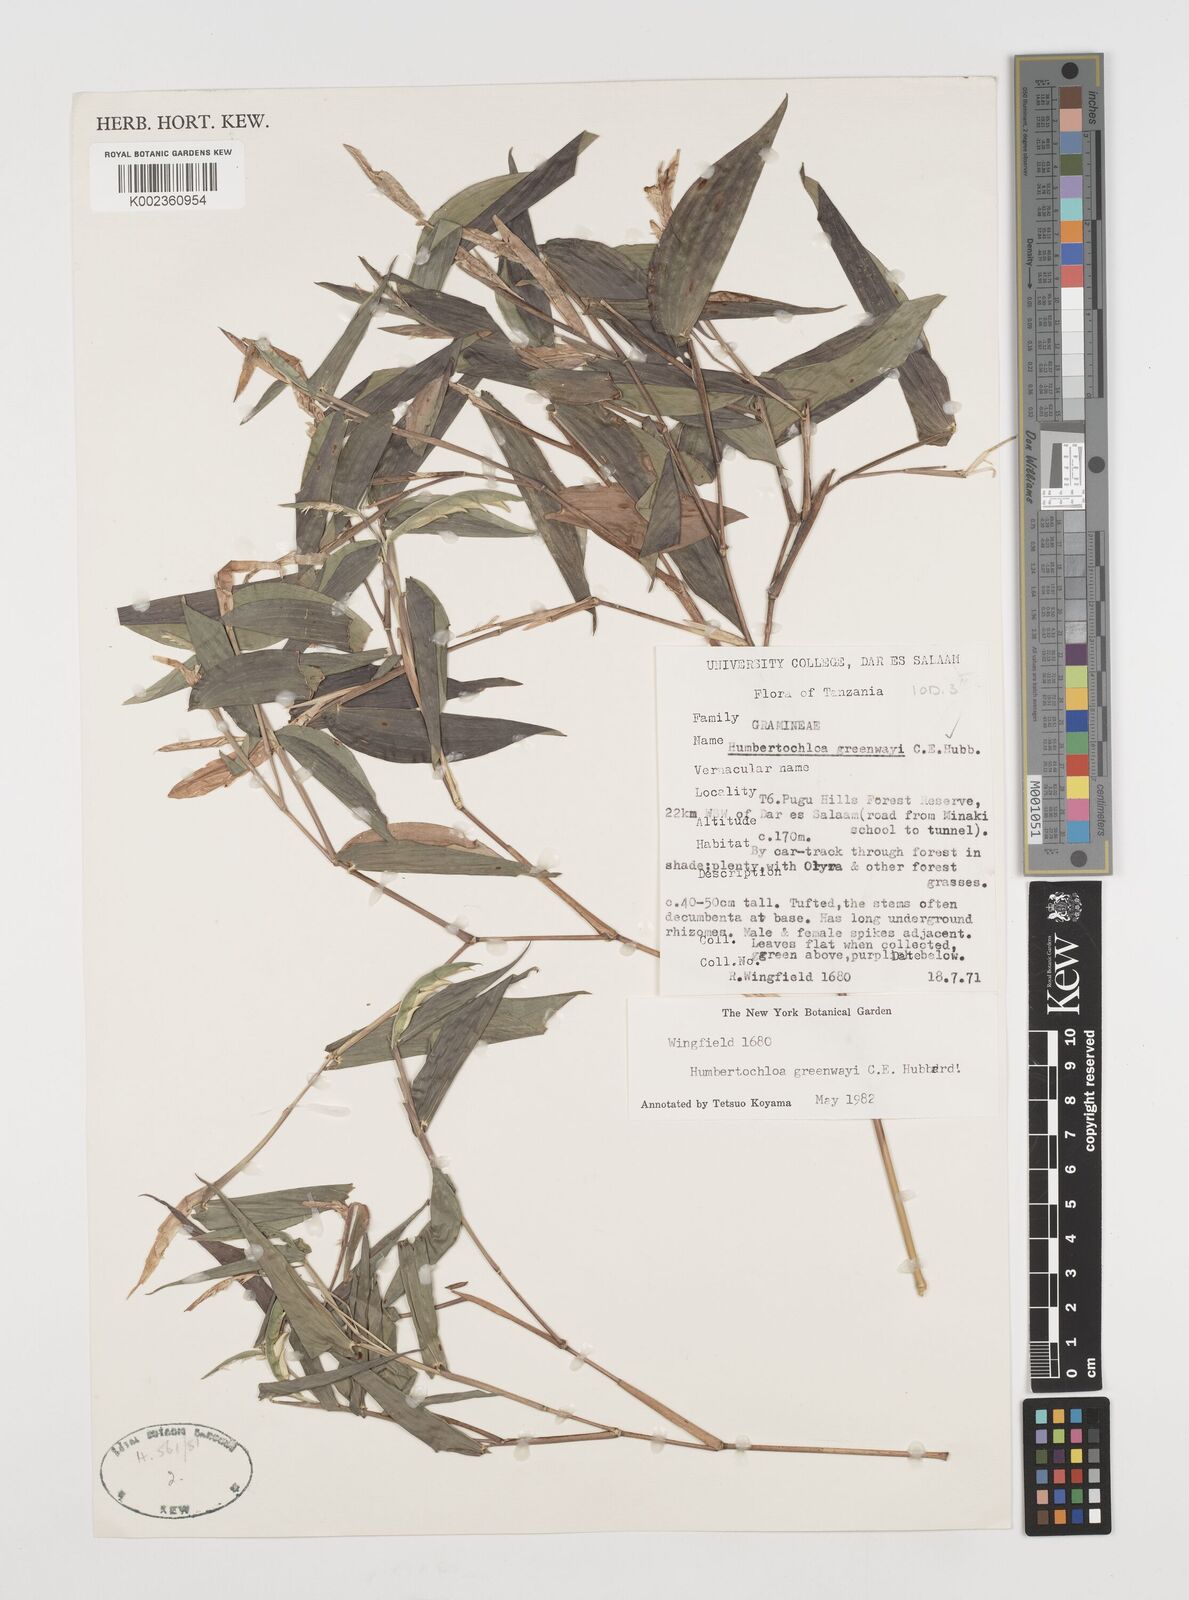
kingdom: Plantae
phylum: Tracheophyta
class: Liliopsida
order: Poales
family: Poaceae
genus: Humbertochloa
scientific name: Humbertochloa greenwayi
